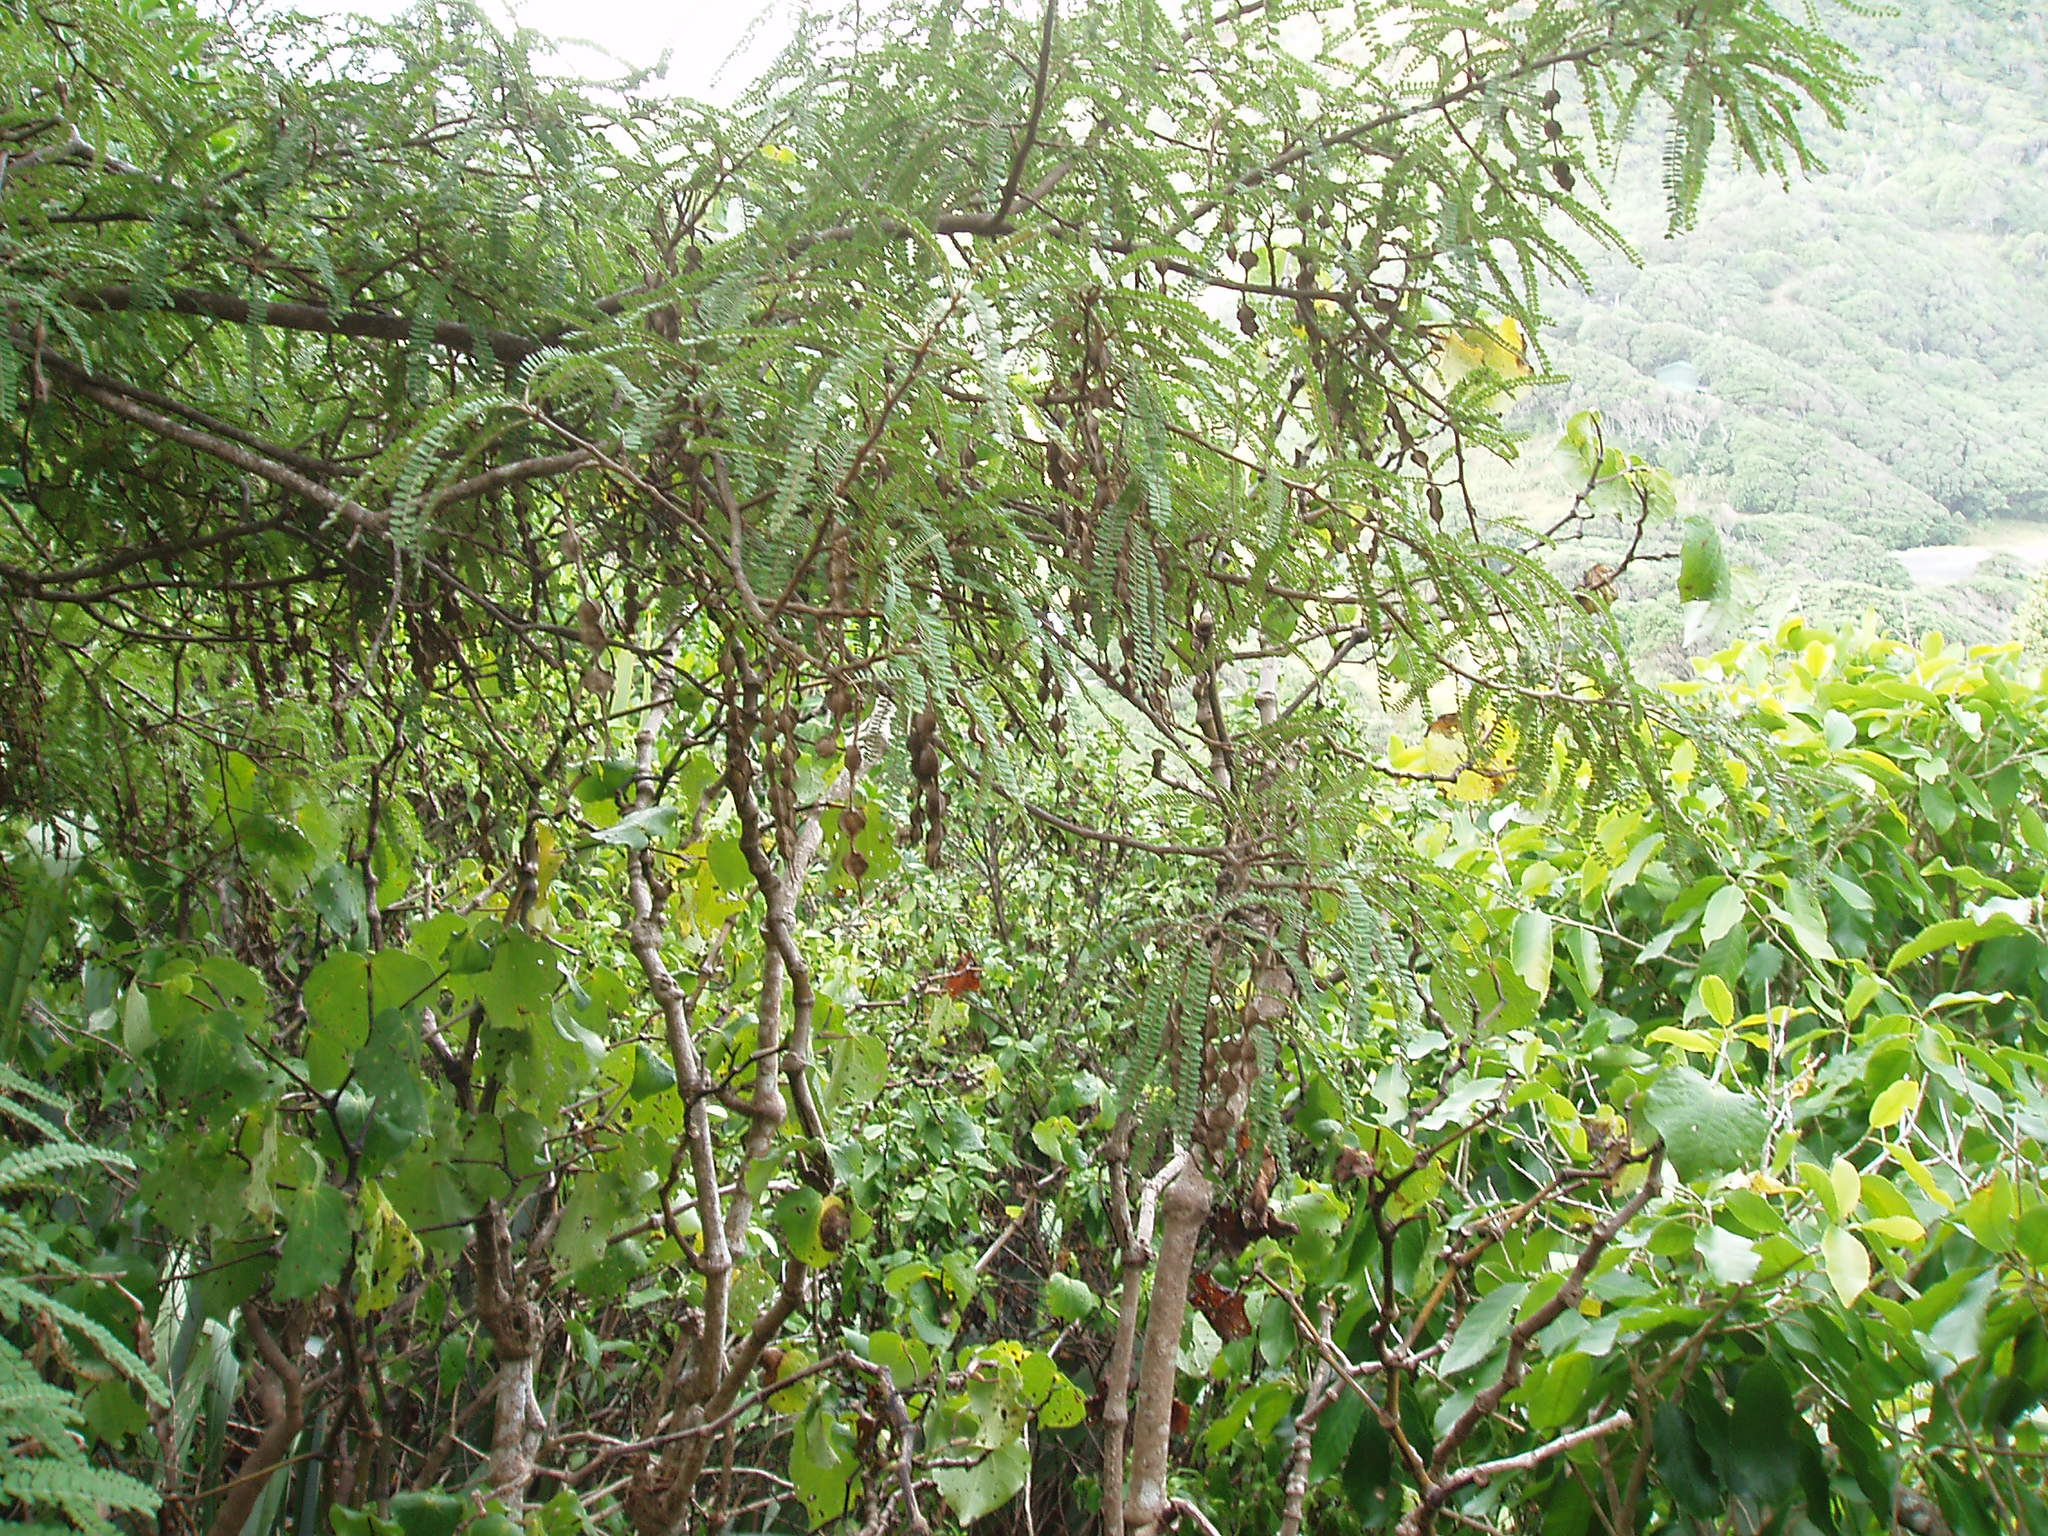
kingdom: Plantae
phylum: Tracheophyta
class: Magnoliopsida
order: Fabales
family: Fabaceae
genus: Sophora
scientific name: Sophora fulvida
